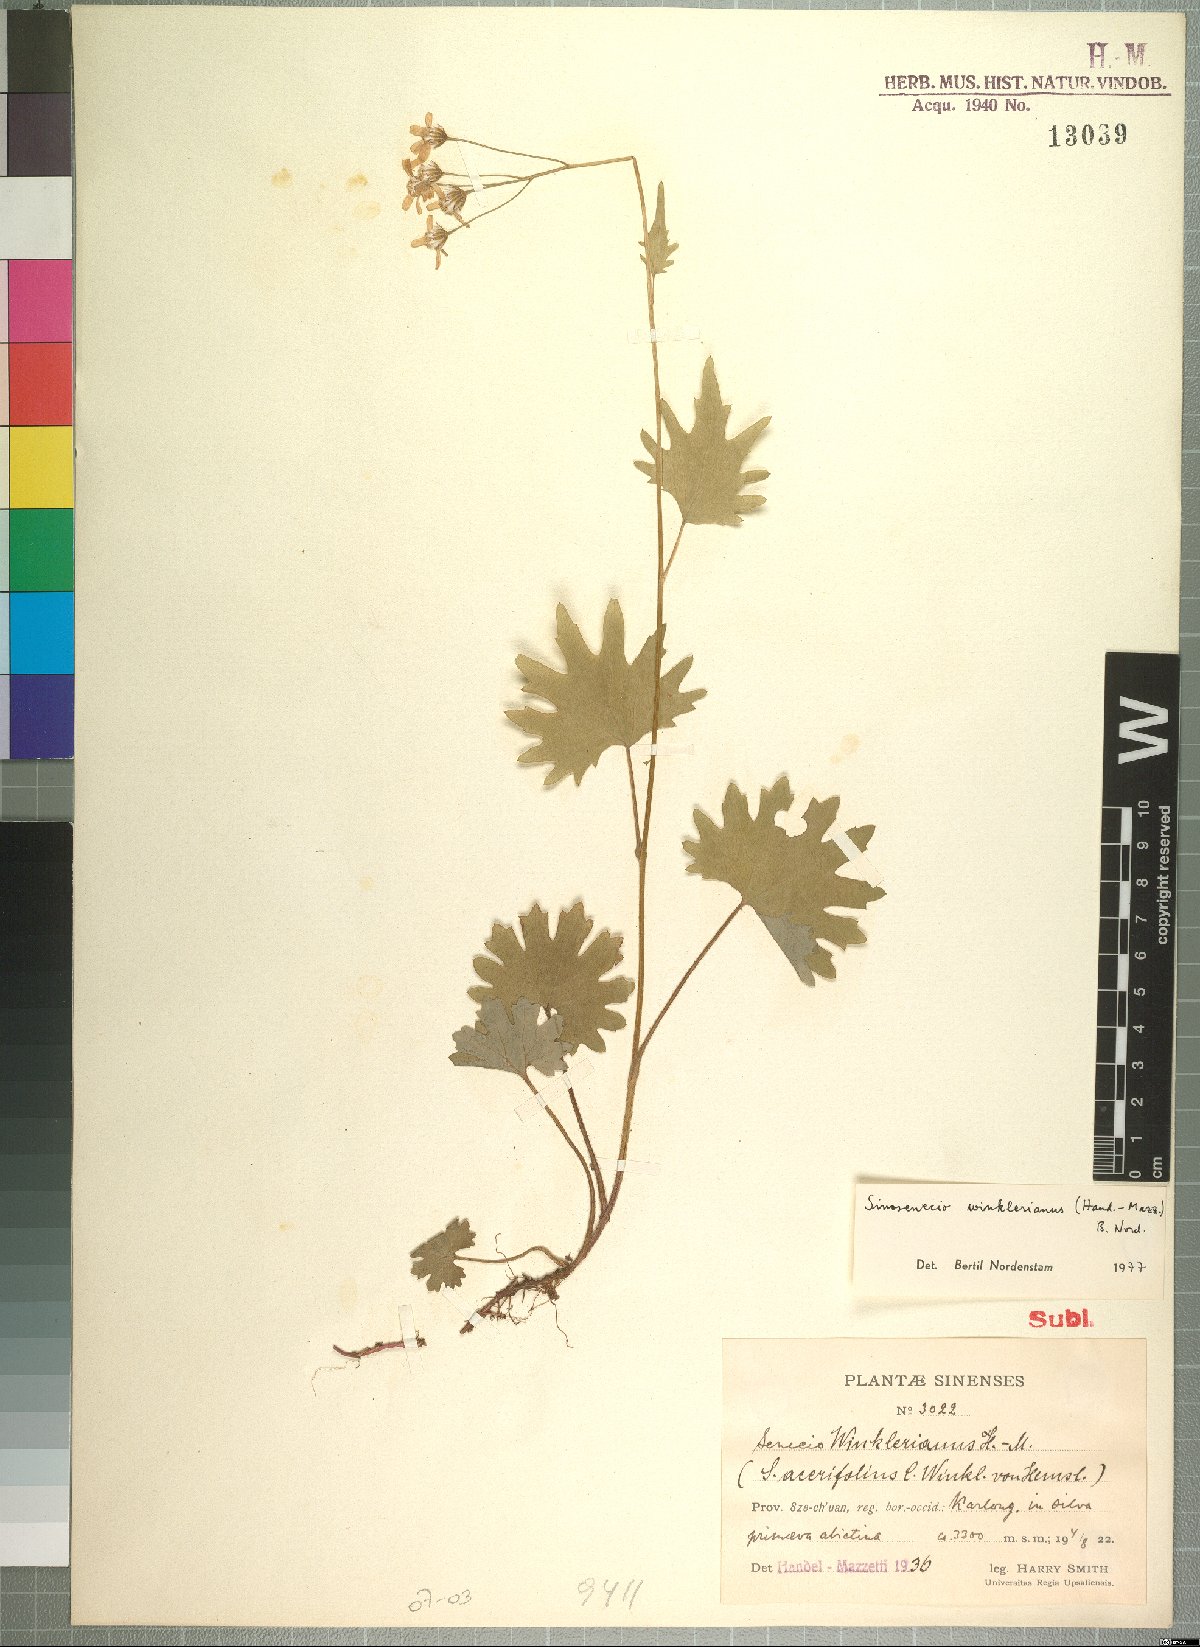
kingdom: Plantae
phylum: Tracheophyta
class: Magnoliopsida
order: Asterales
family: Asteraceae
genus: Sinosenecio
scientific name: Sinosenecio euosmus
